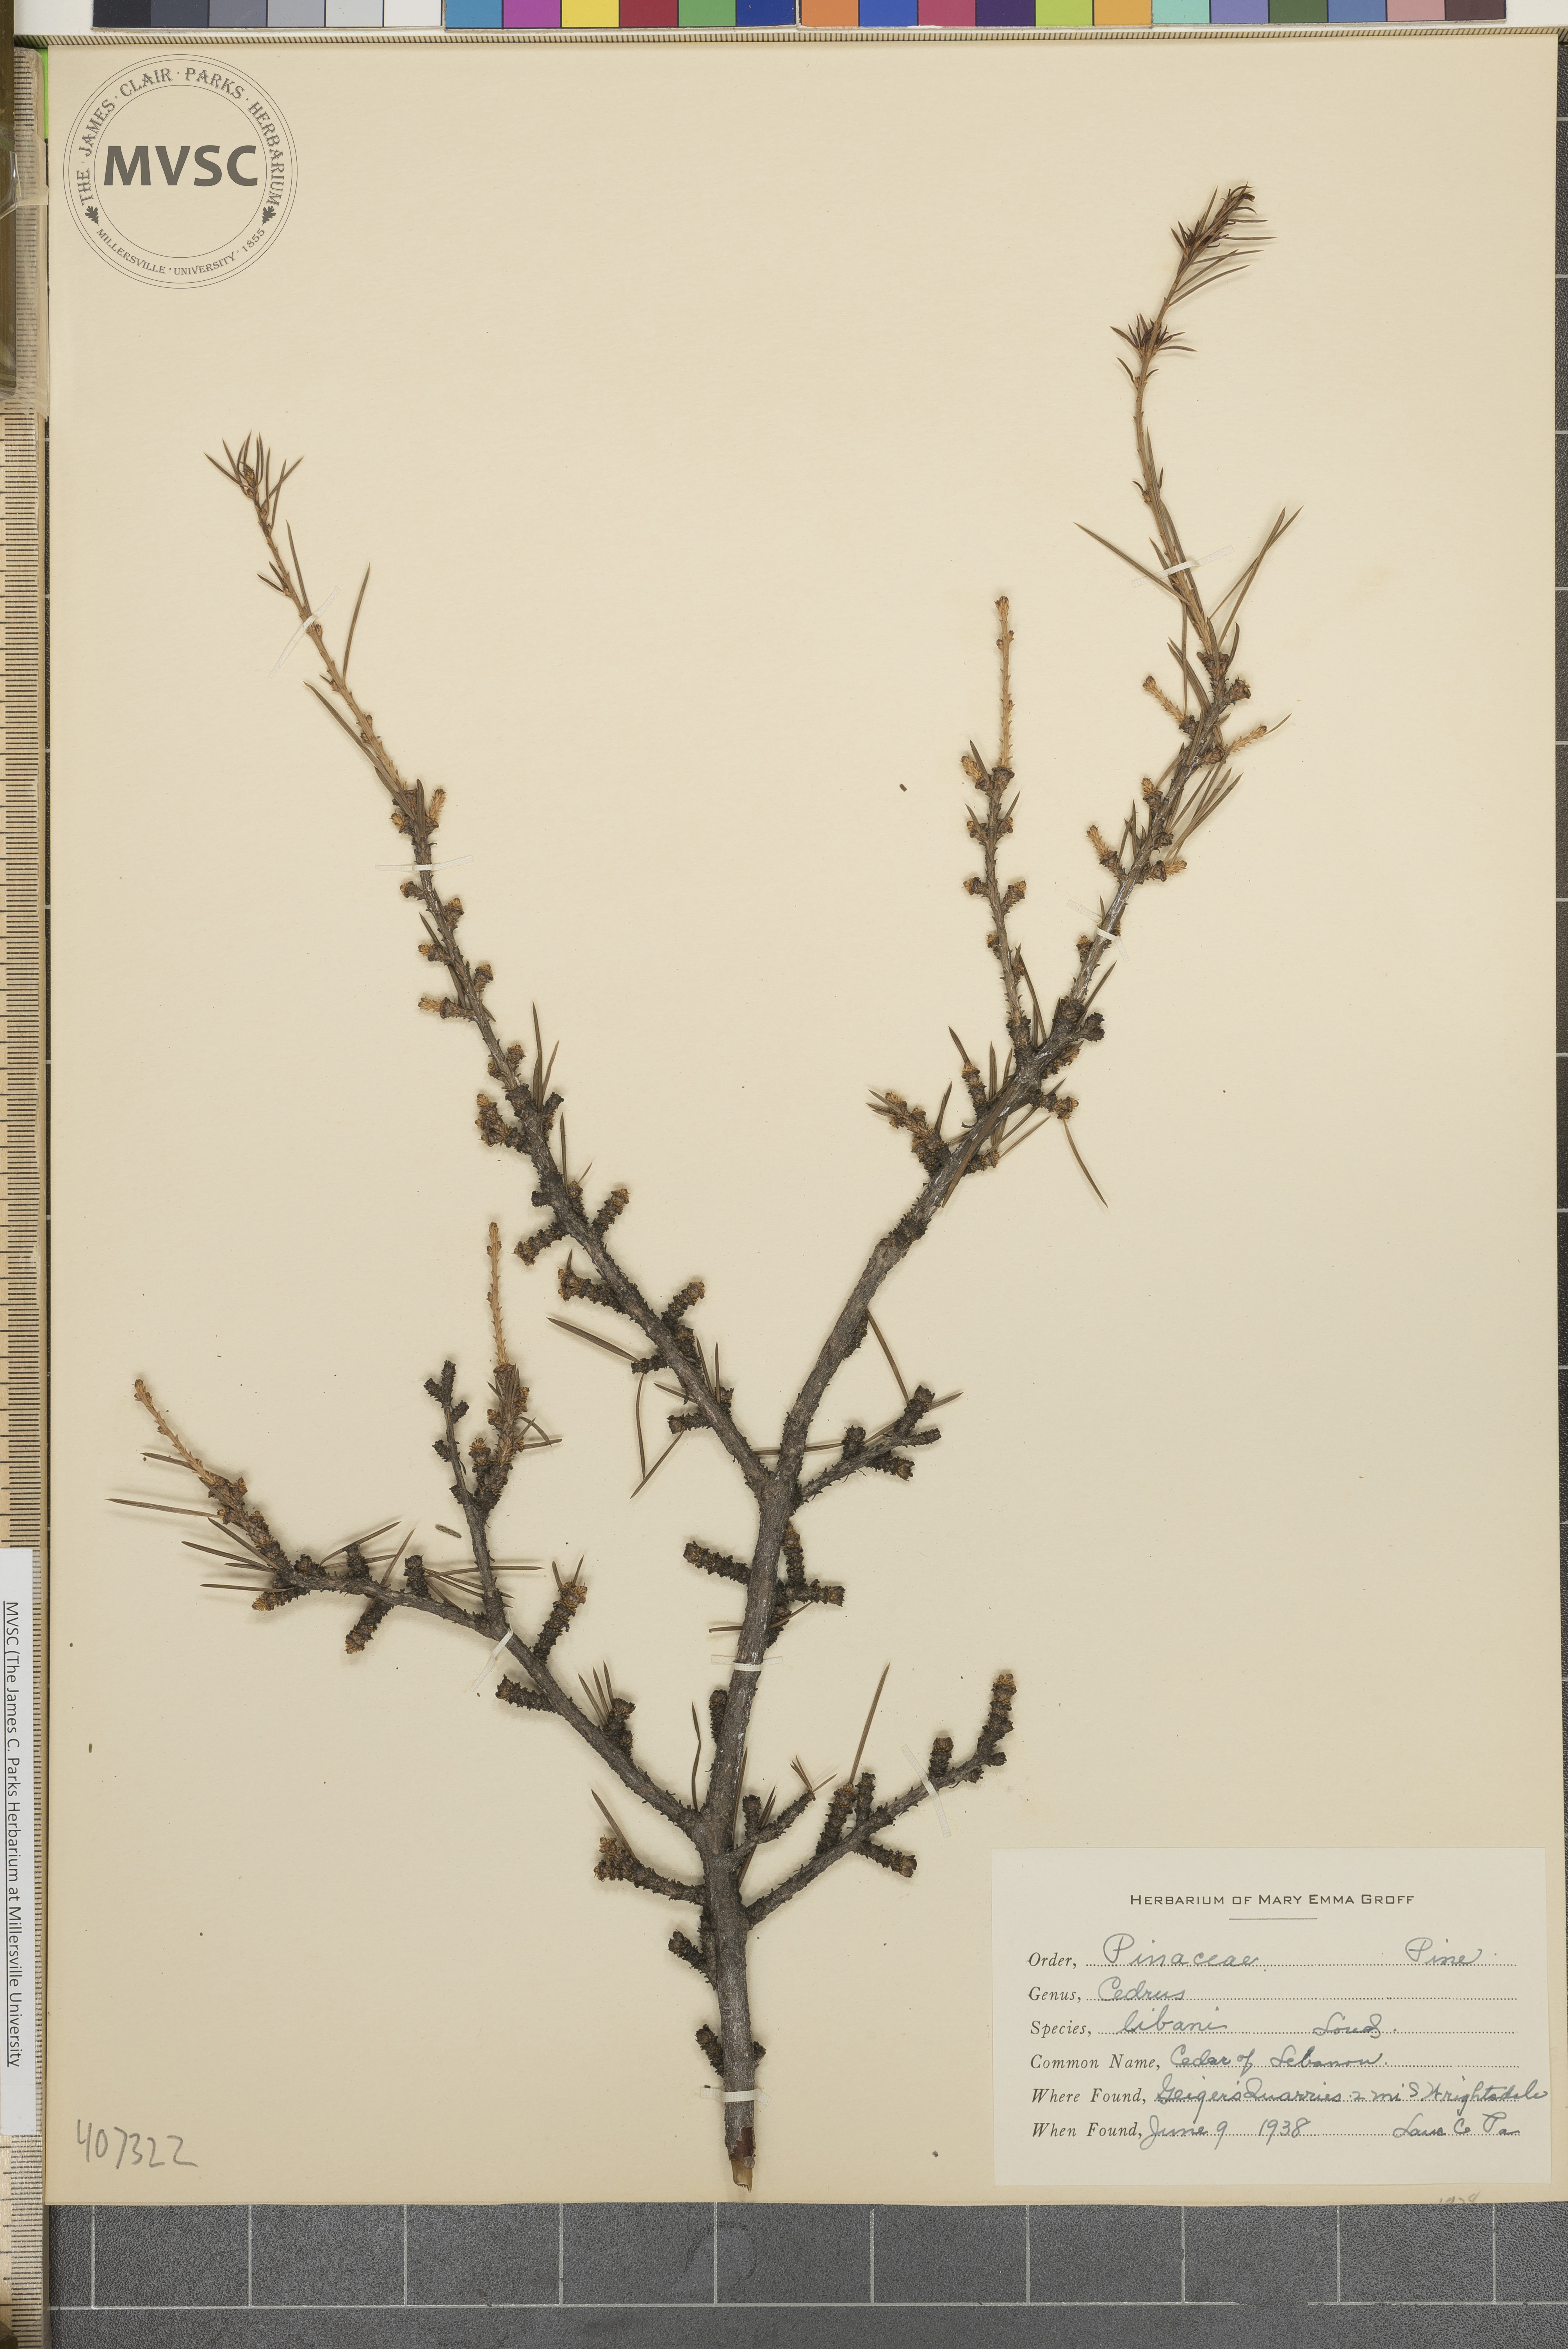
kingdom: Plantae
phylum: Tracheophyta
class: Pinopsida
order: Pinales
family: Pinaceae
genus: Cedrus
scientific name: Cedrus libani
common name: Cedar-of-lebanon
